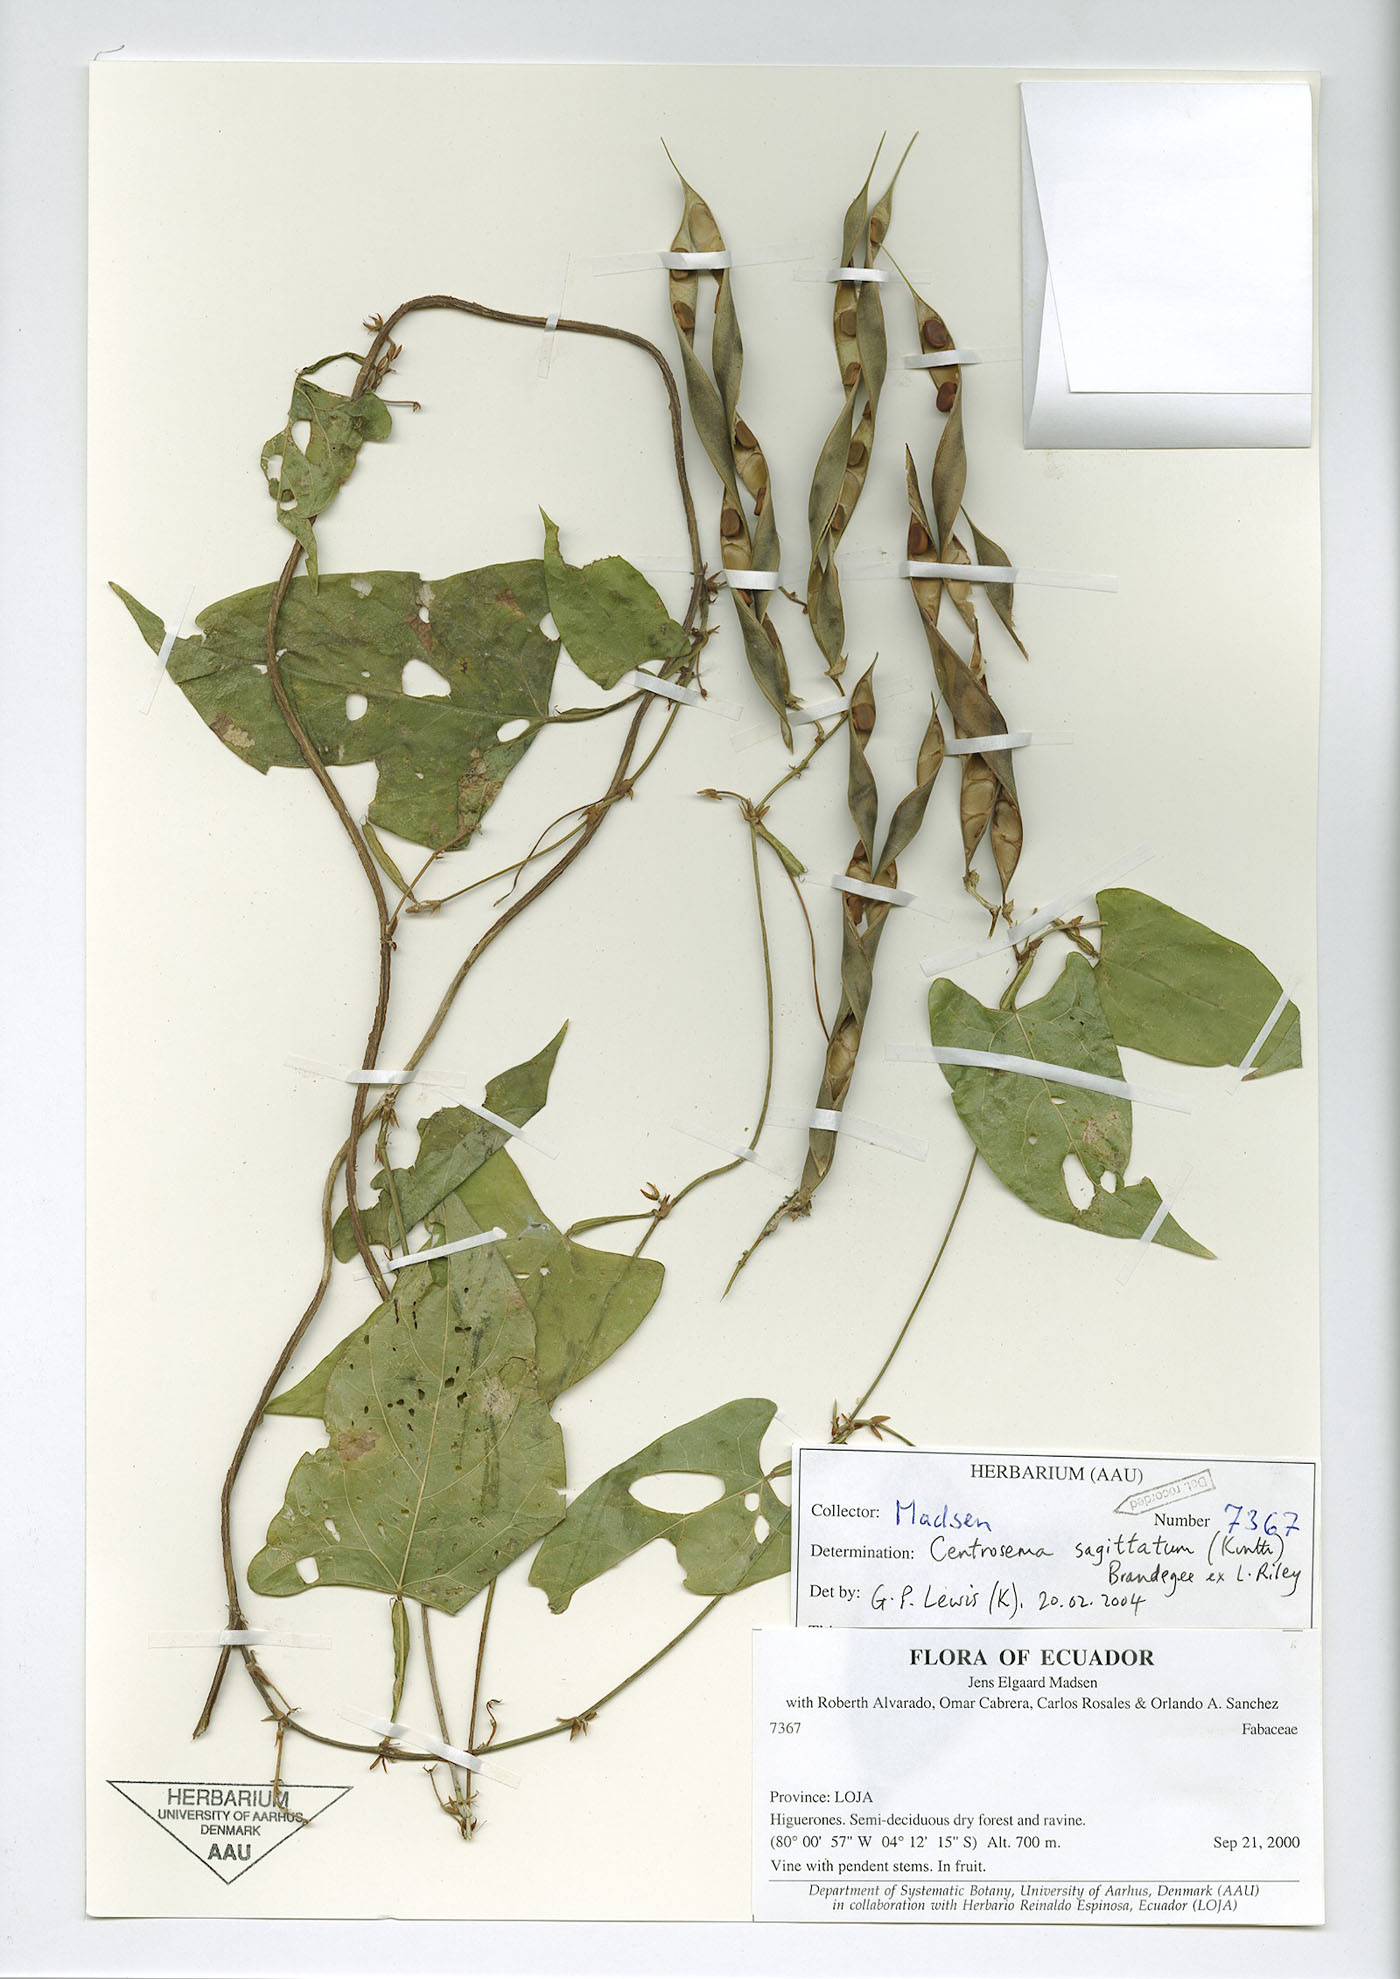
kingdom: Plantae
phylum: Tracheophyta
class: Magnoliopsida
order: Fabales
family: Fabaceae
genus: Centrosema
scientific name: Centrosema sagittatum
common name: Arrowleaf butterfly pea
